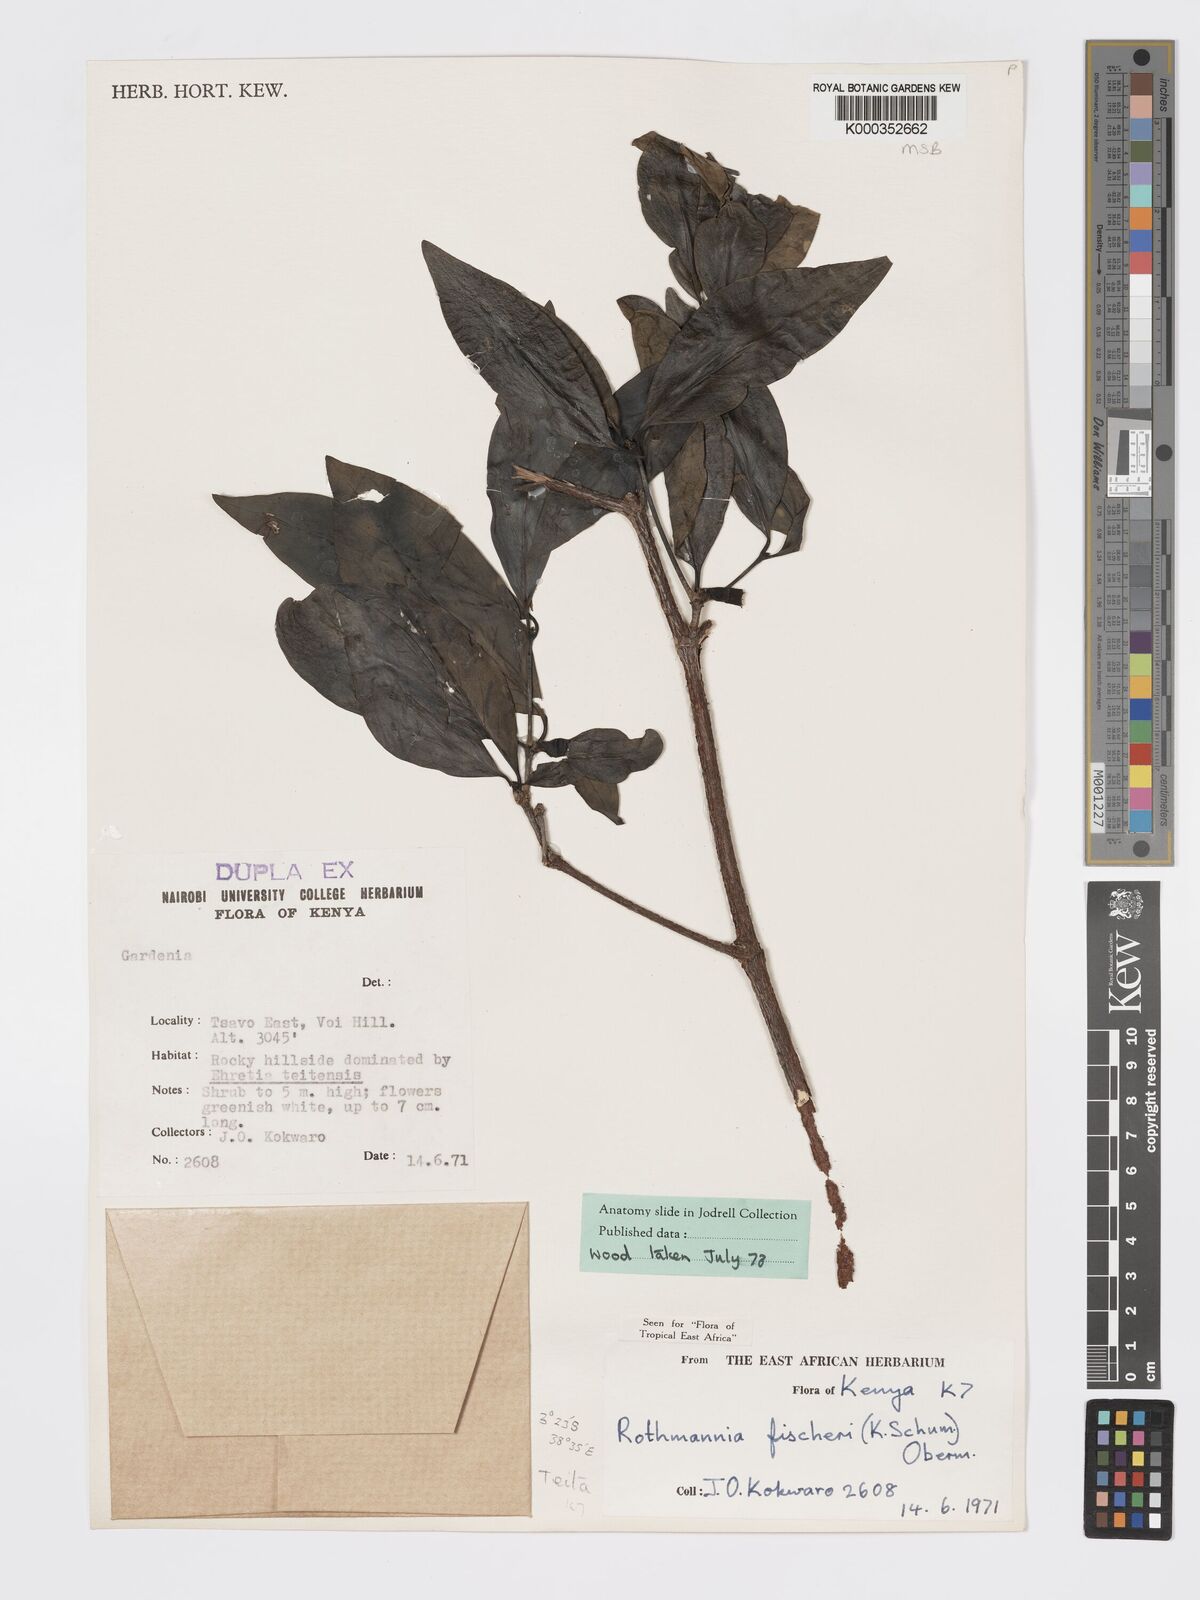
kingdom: Plantae
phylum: Tracheophyta
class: Magnoliopsida
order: Gentianales
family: Rubiaceae
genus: Rothmannia
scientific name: Rothmannia fischeri
